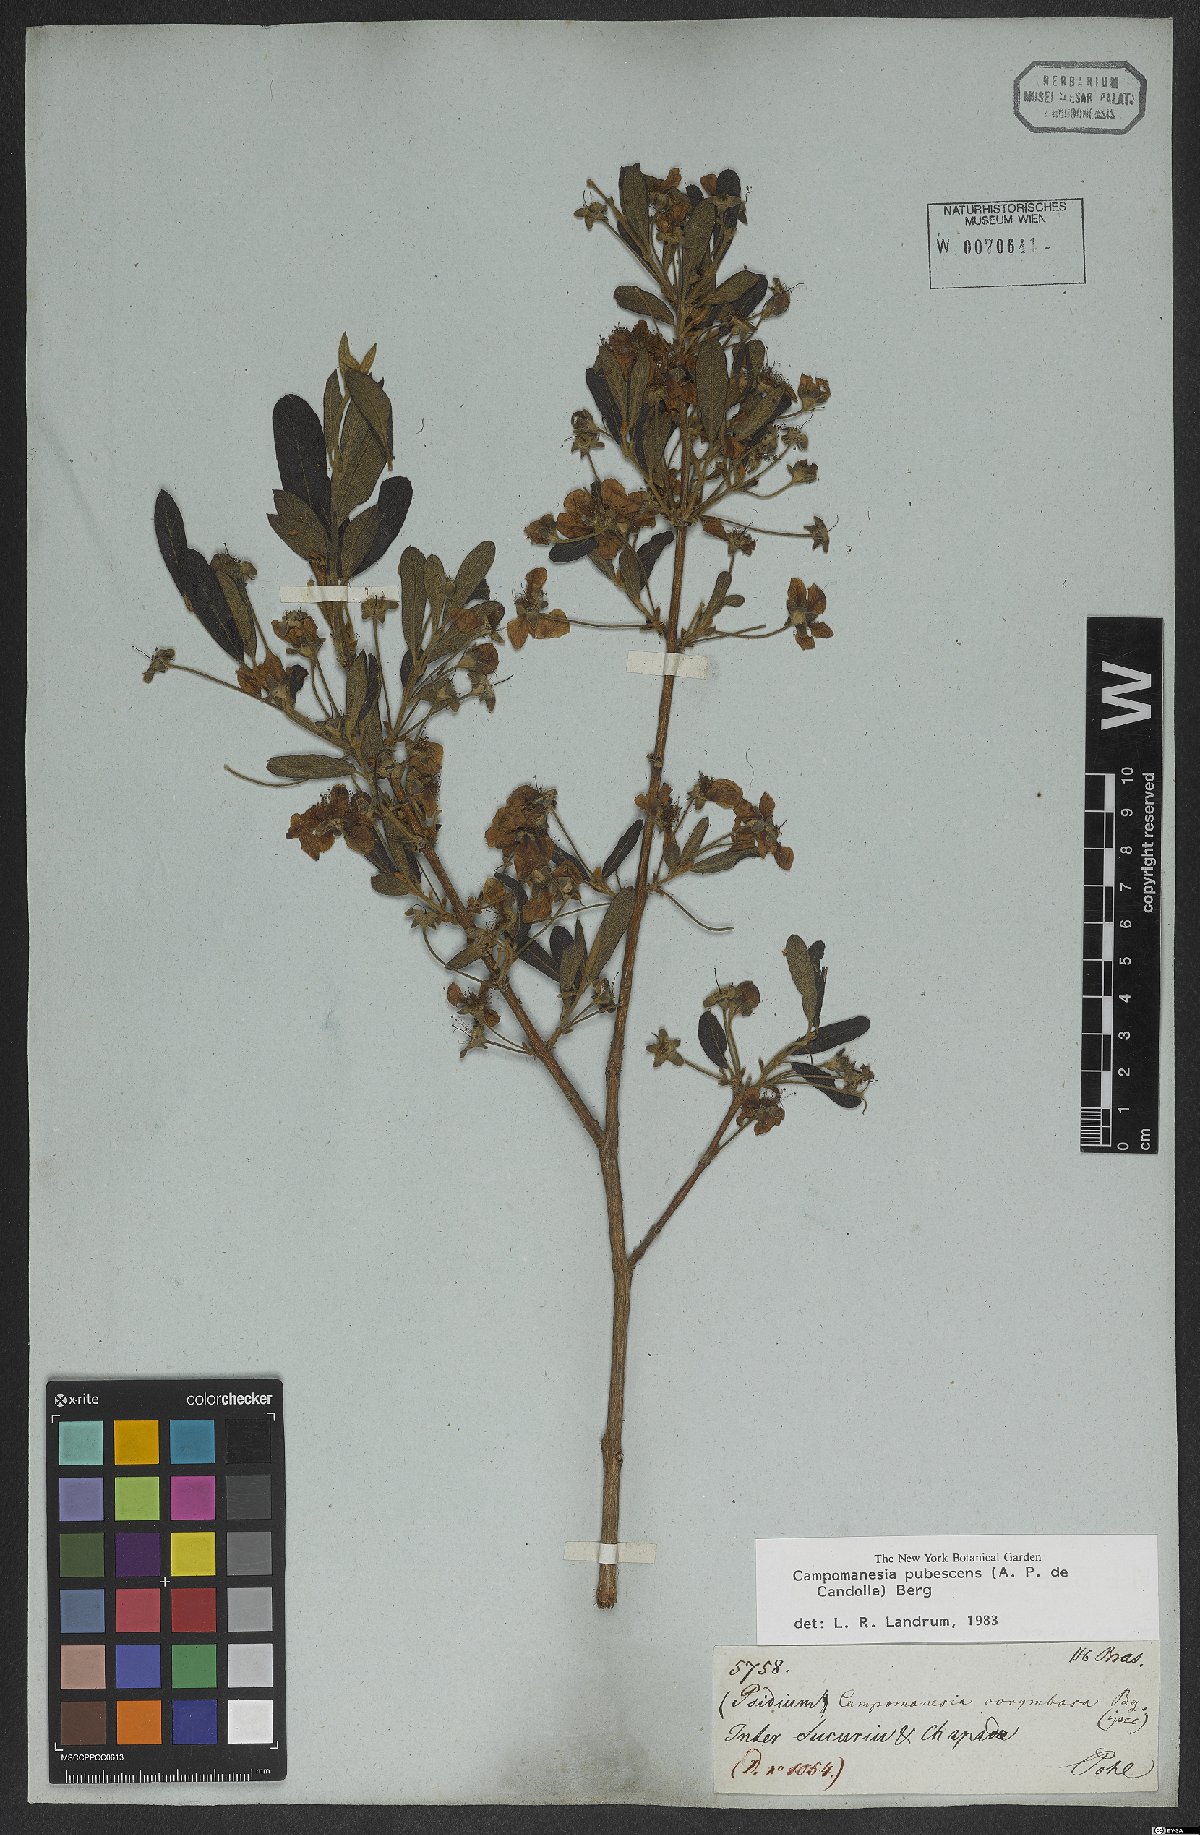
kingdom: Plantae
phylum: Tracheophyta
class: Magnoliopsida
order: Myrtales
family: Myrtaceae
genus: Campomanesia
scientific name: Campomanesia pubescens
